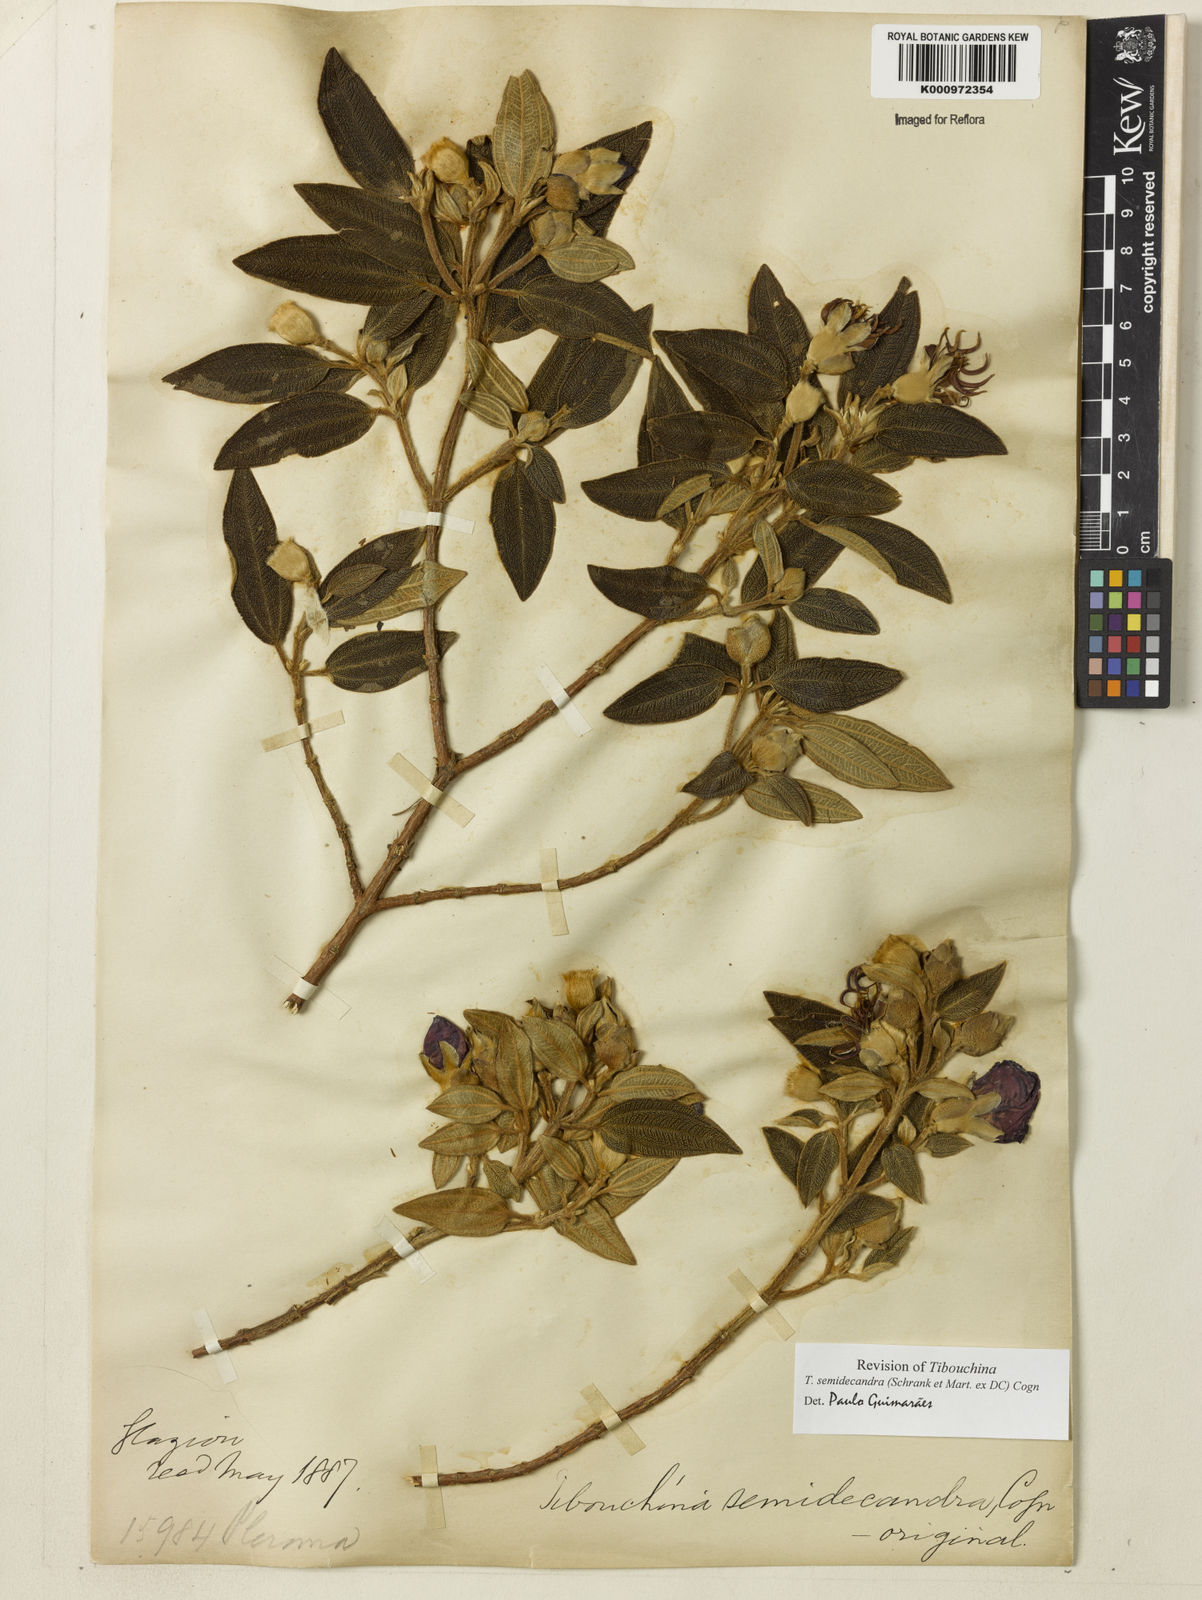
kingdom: Plantae
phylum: Tracheophyta
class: Magnoliopsida
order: Myrtales
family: Melastomataceae
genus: Pleroma
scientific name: Pleroma semidecandrum
